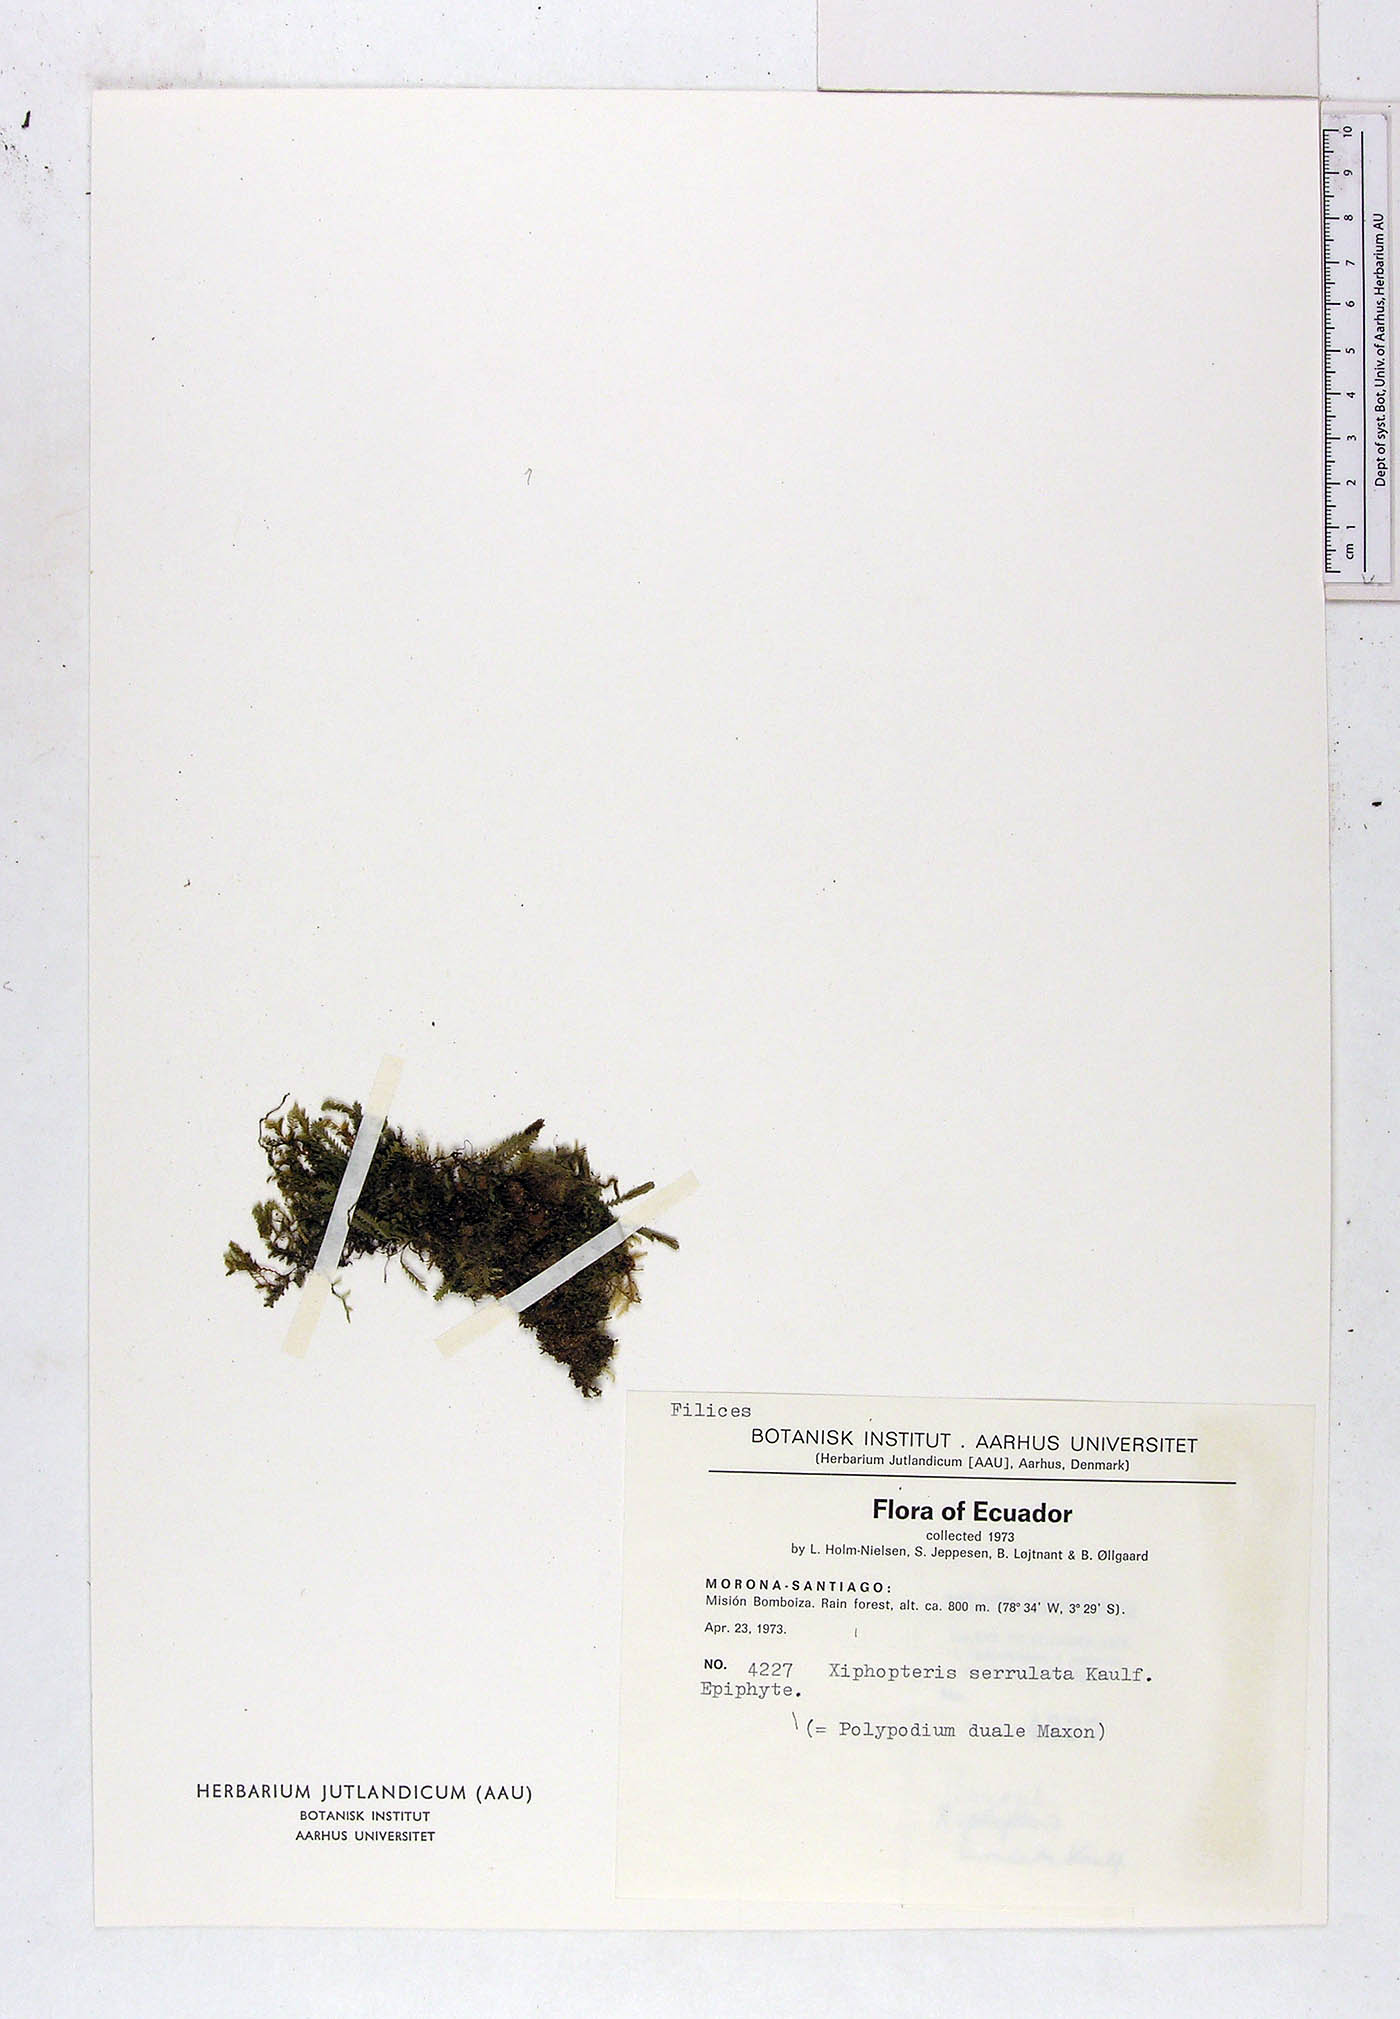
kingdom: Plantae
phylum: Tracheophyta
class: Polypodiopsida
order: Polypodiales
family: Polypodiaceae
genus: Cochlidium
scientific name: Cochlidium serrulatum
